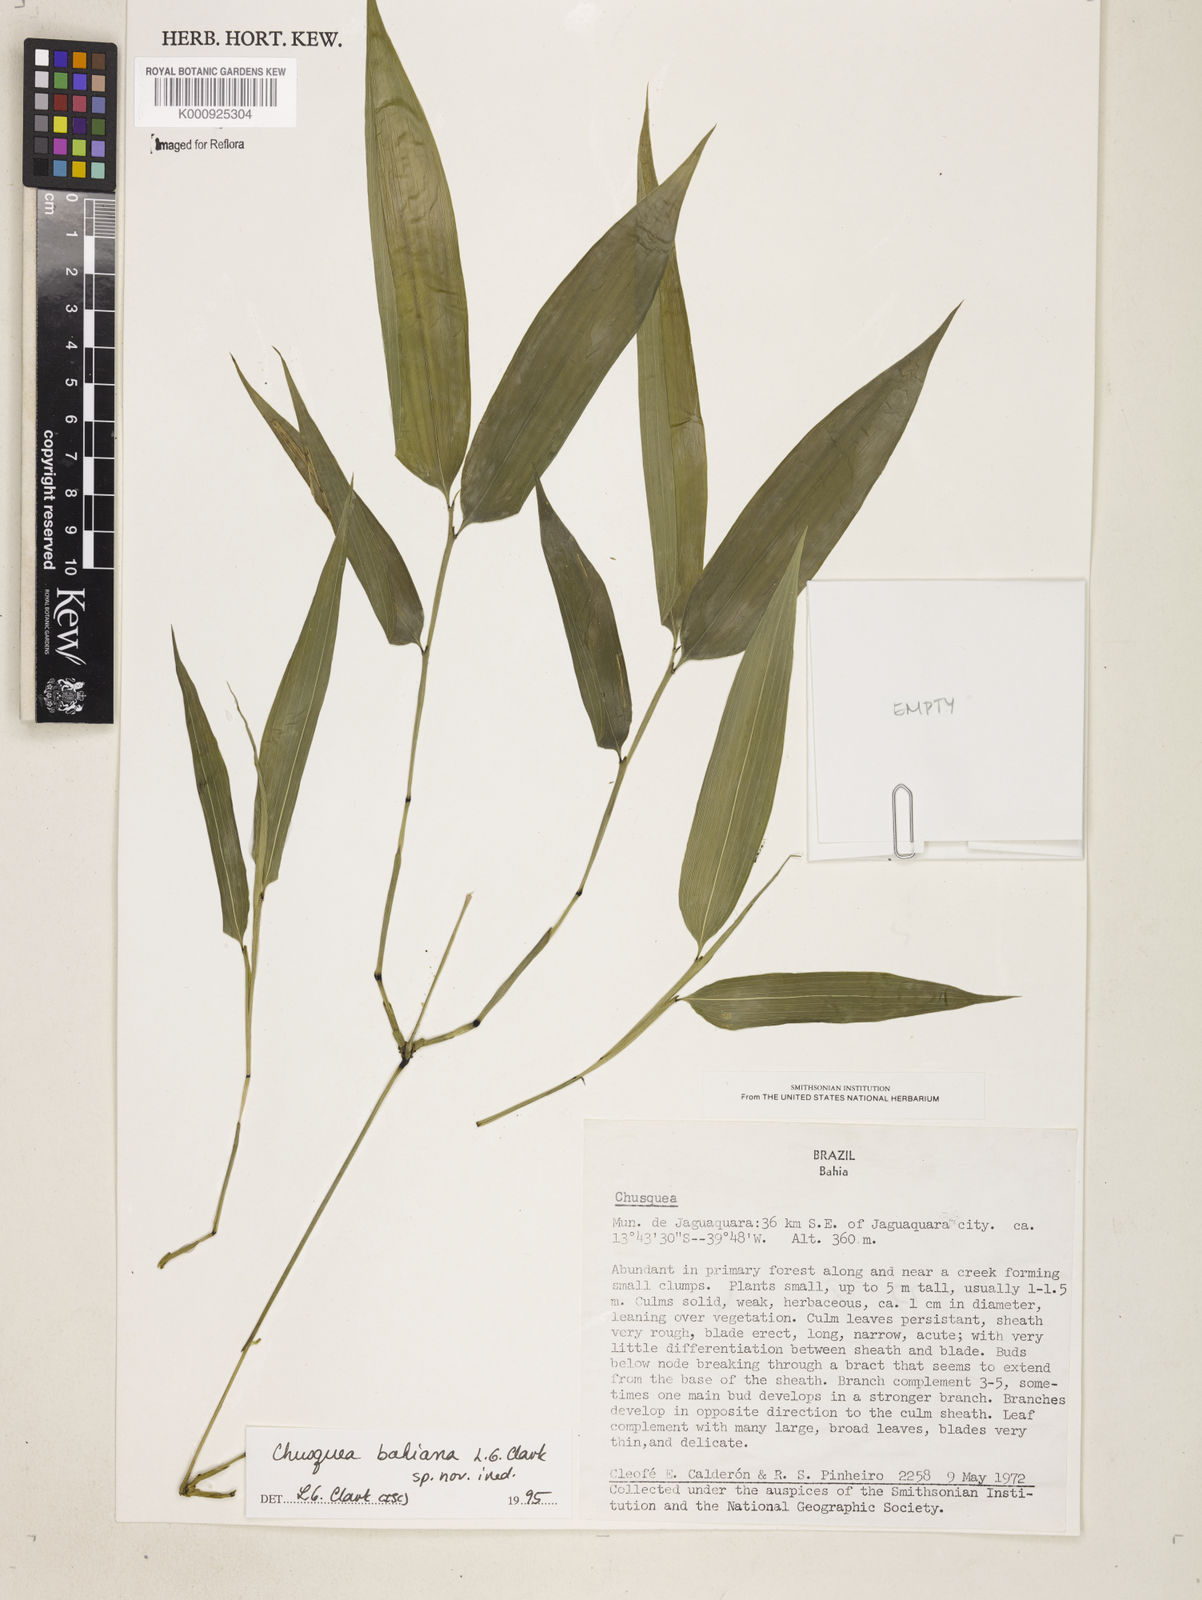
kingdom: Plantae
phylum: Tracheophyta
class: Liliopsida
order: Poales
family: Poaceae
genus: Chusquea
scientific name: Chusquea bahiana
